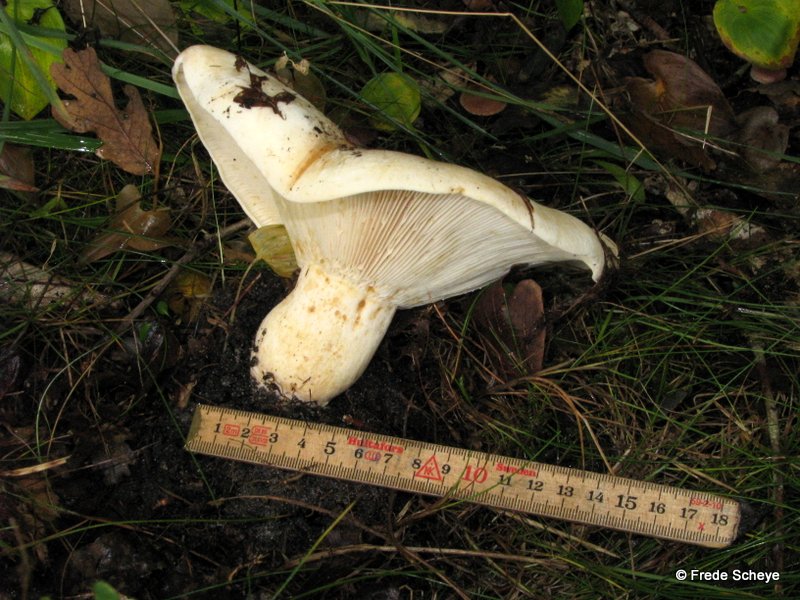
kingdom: Fungi
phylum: Basidiomycota
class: Agaricomycetes
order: Russulales
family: Russulaceae
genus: Lactifluus
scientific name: Lactifluus vellereus
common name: hvidfiltet mælkehat
